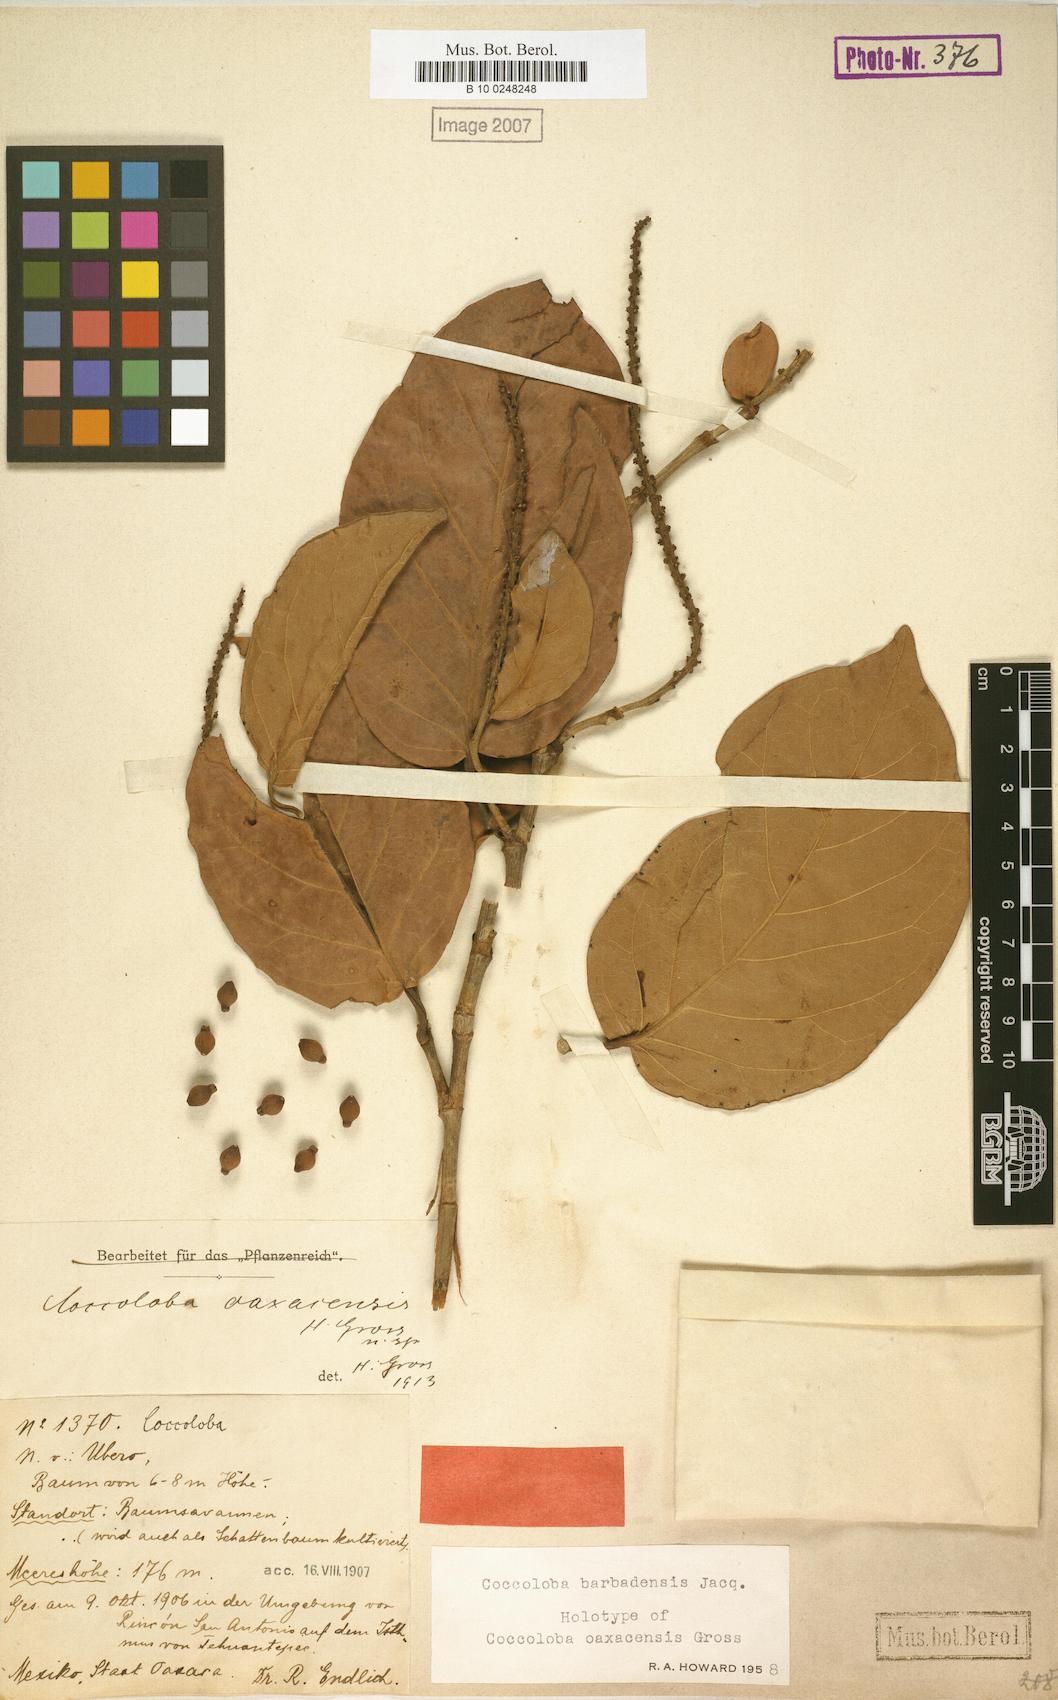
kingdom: Plantae
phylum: Tracheophyta
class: Magnoliopsida
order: Caryophyllales
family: Polygonaceae
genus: Coccoloba
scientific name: Coccoloba barbadensis
